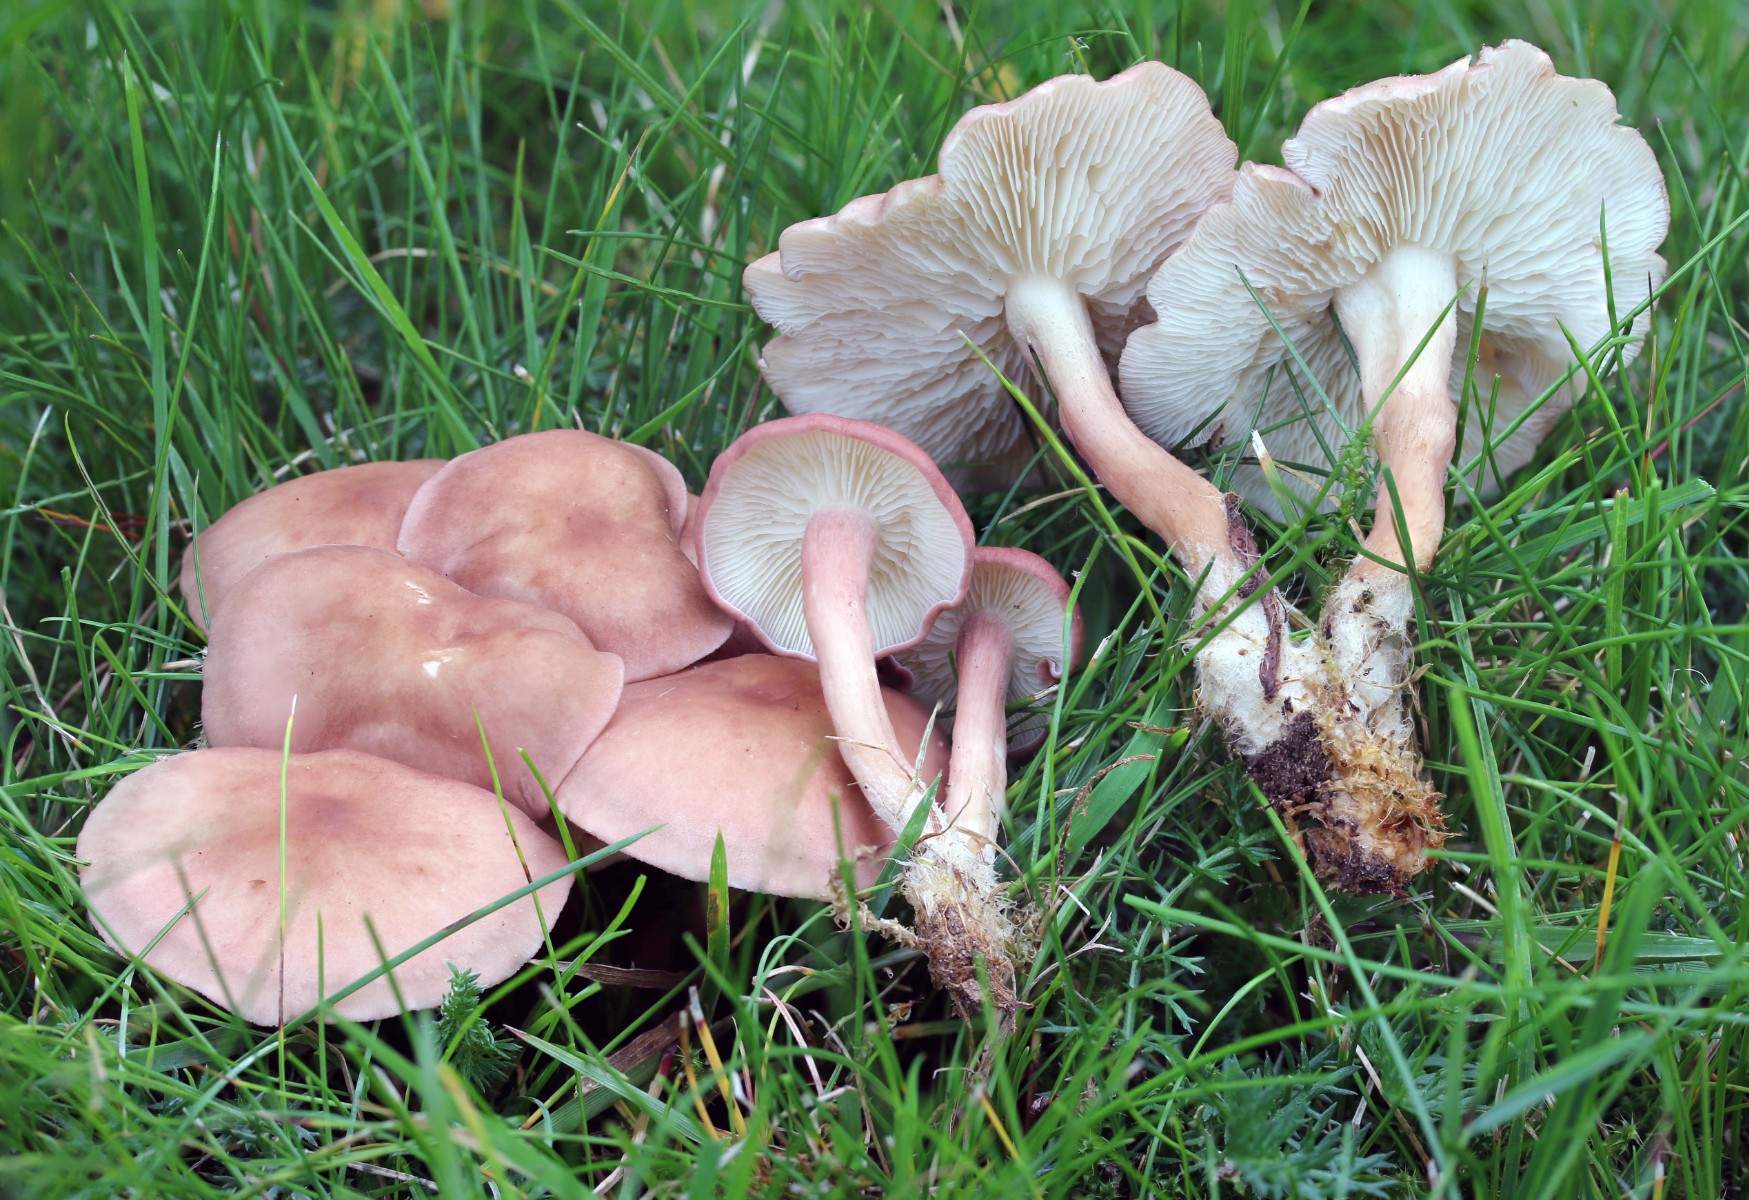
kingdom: Fungi
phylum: Basidiomycota
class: Agaricomycetes
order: Agaricales
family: Lyophyllaceae
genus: Calocybe
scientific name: Calocybe carnea
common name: rosa fagerhat
